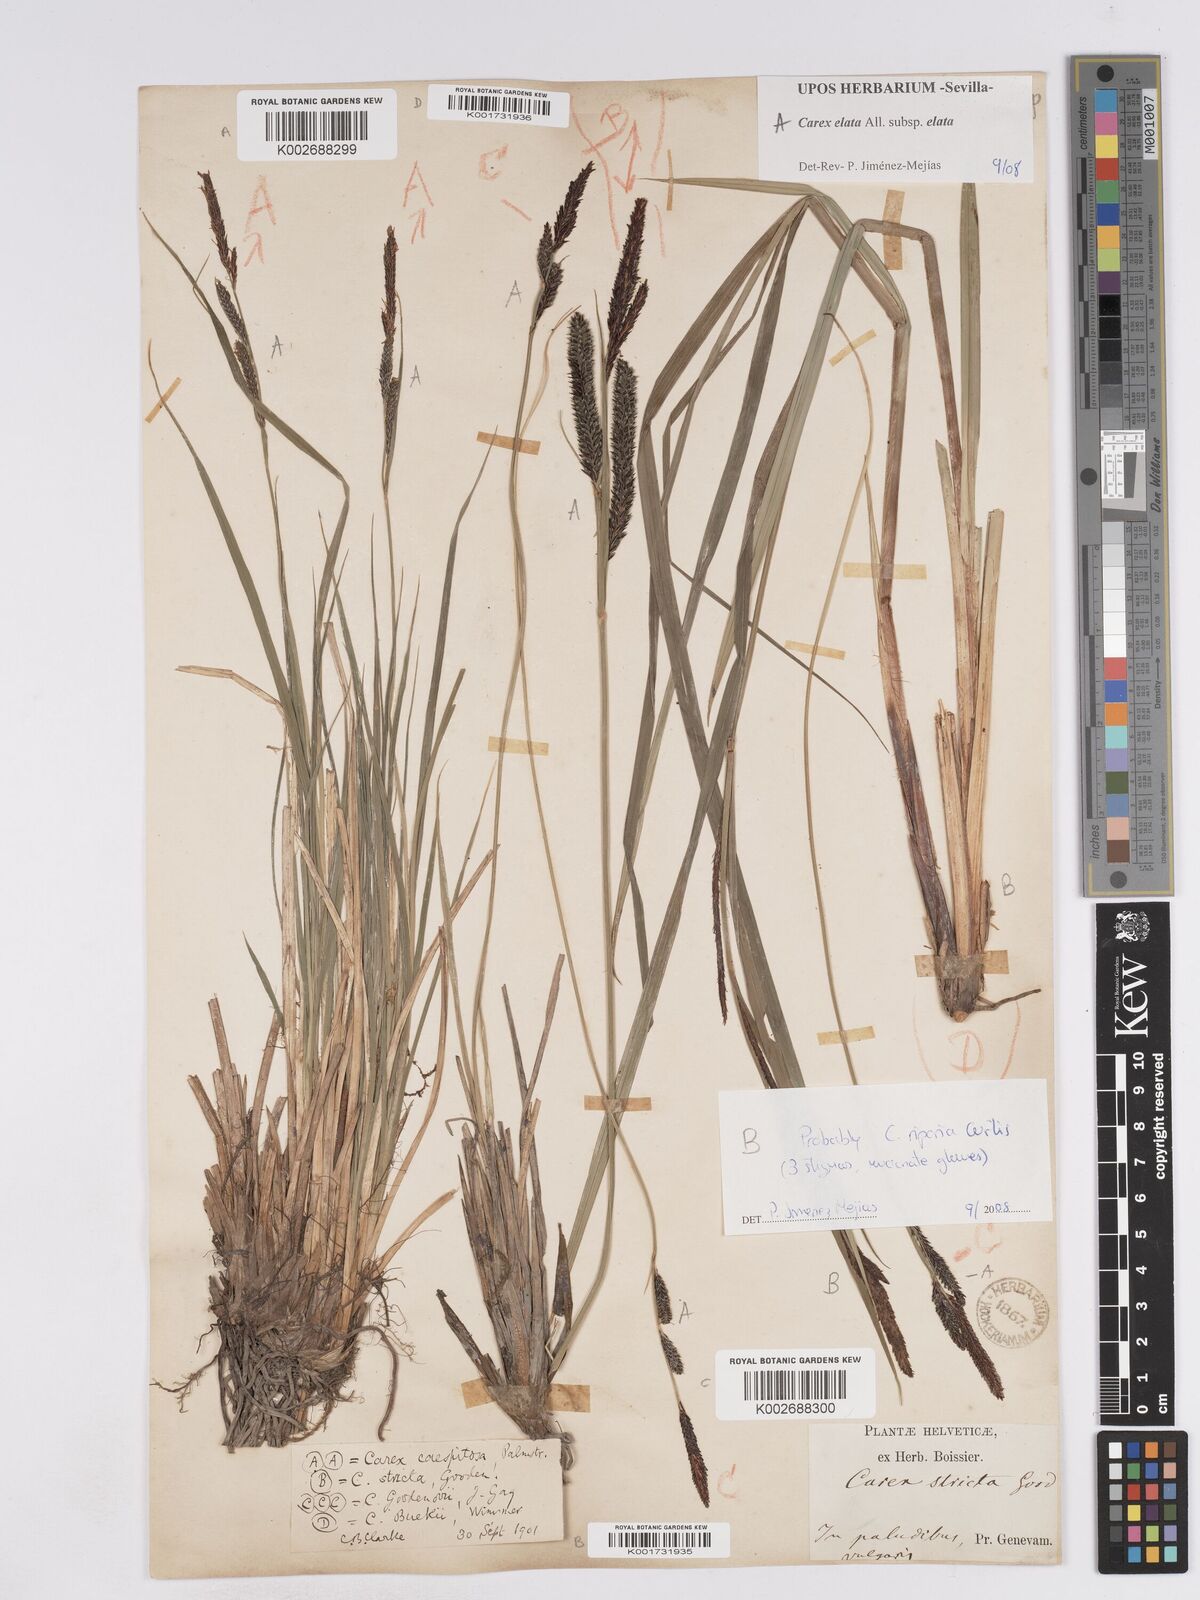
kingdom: Plantae
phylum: Tracheophyta
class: Liliopsida
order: Poales
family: Cyperaceae
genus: Carex
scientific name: Carex elata
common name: Tufted sedge
